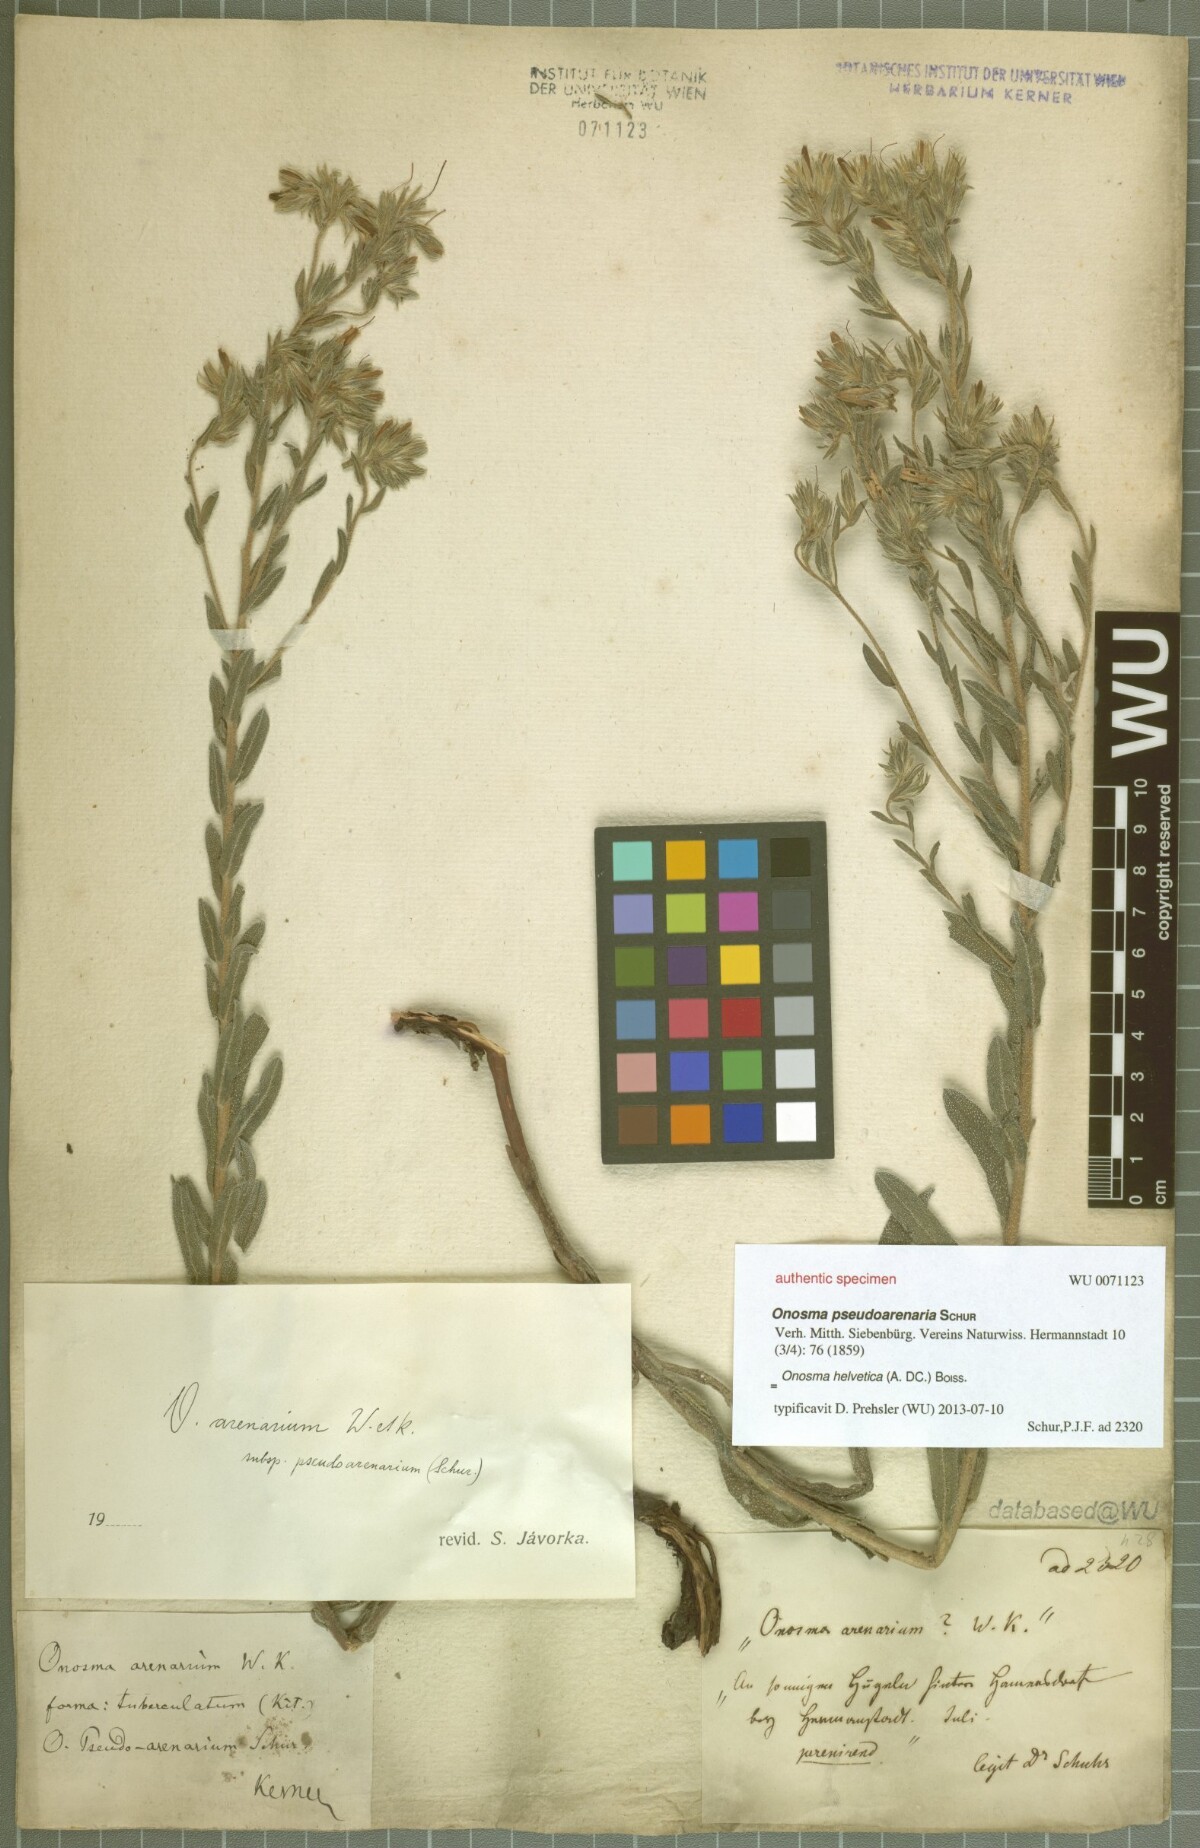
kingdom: Plantae
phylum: Tracheophyta
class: Magnoliopsida
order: Boraginales
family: Boraginaceae
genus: Onosma
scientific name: Onosma pseudoarenaria
